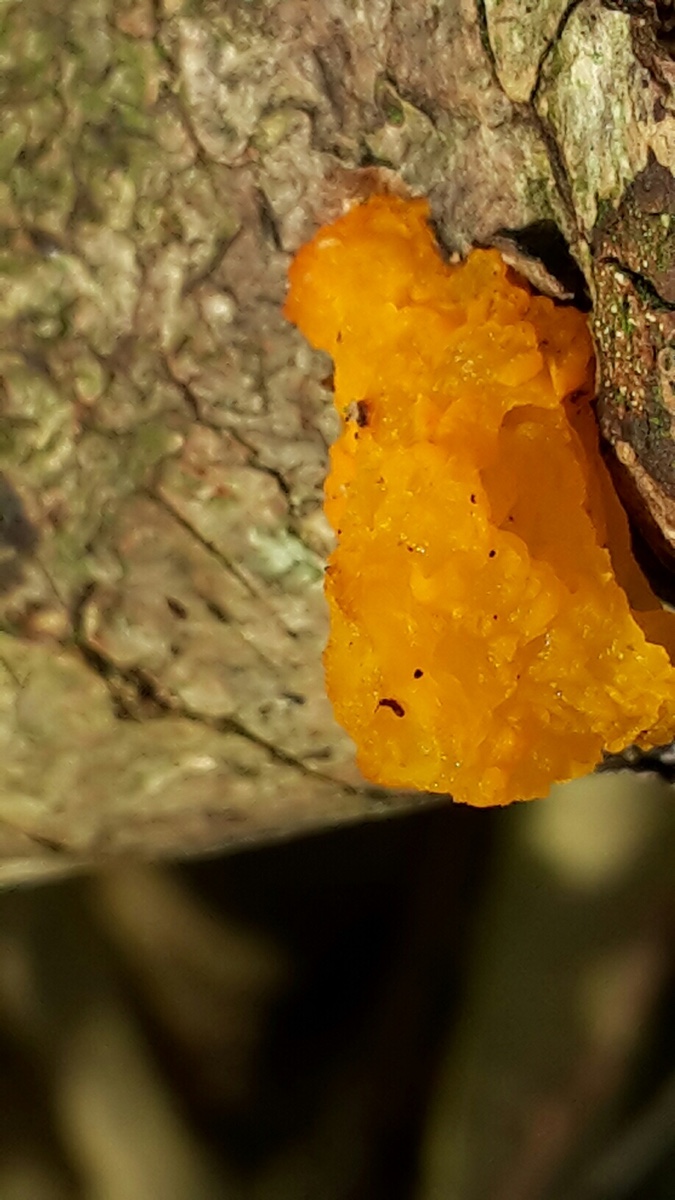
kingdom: Fungi
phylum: Basidiomycota
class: Tremellomycetes
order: Tremellales
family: Tremellaceae
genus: Tremella
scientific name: Tremella mesenterica
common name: gul bævresvamp
